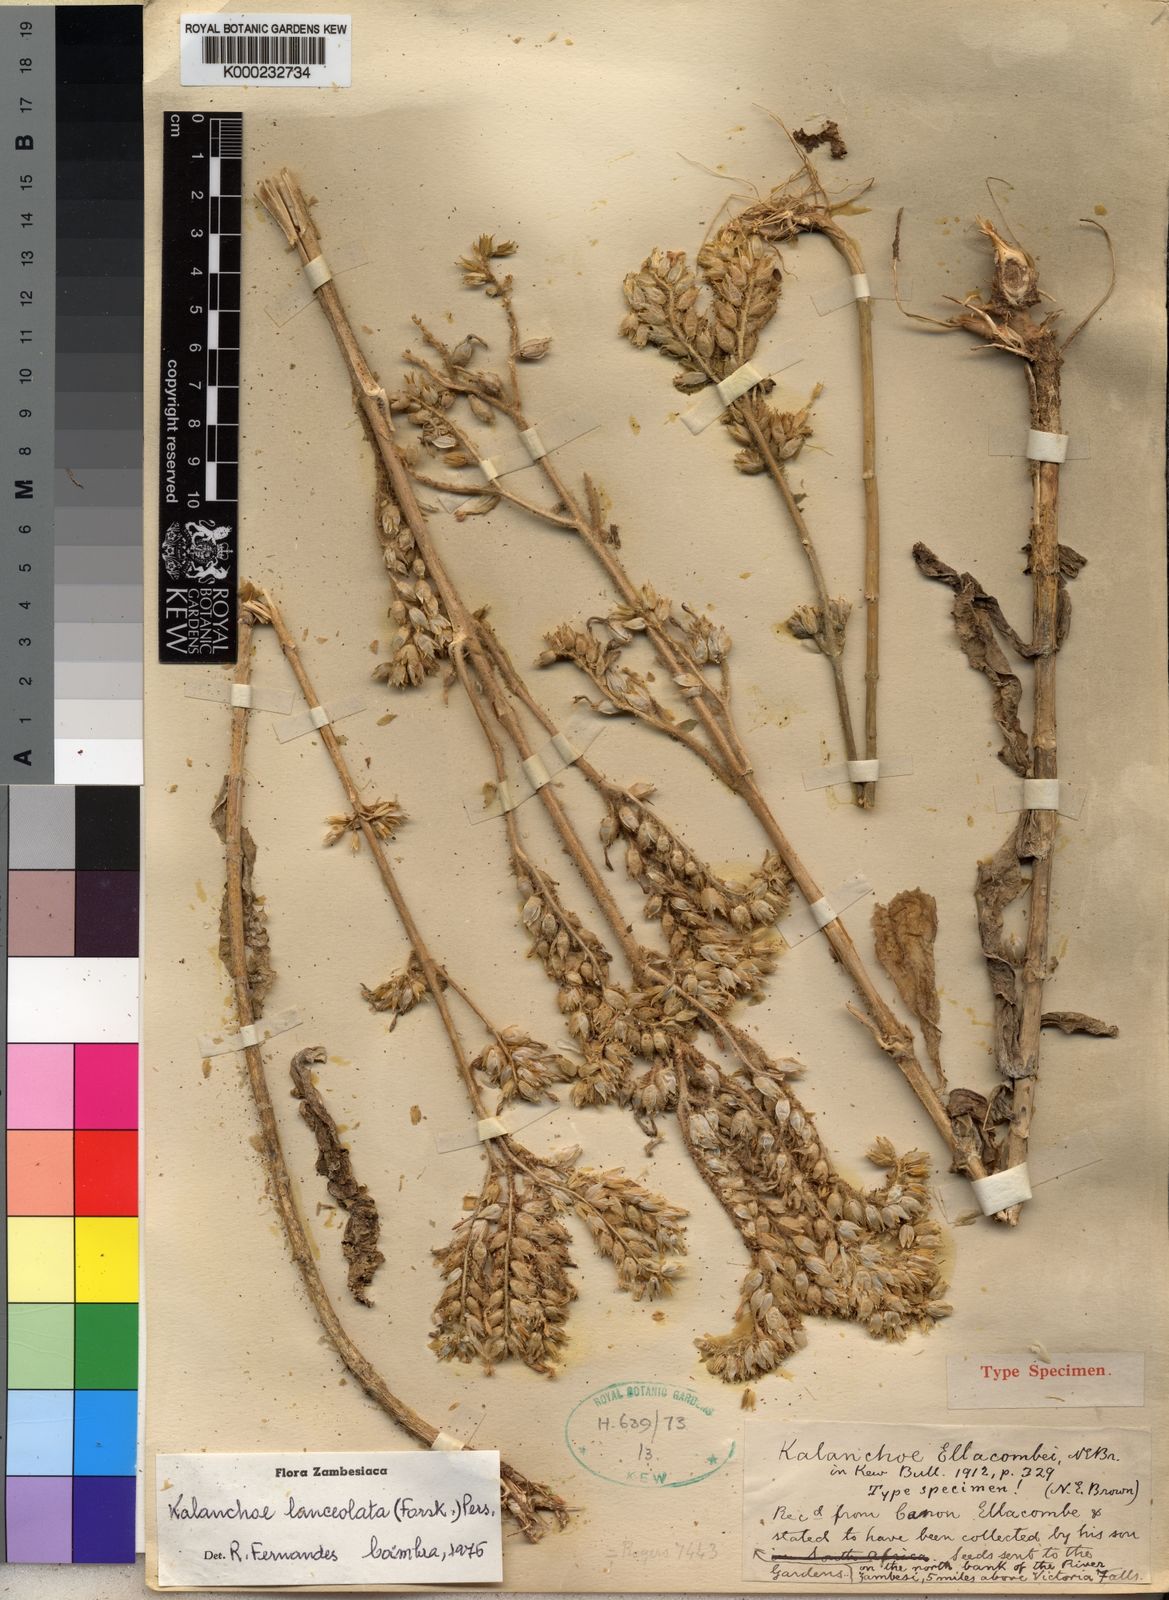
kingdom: Plantae
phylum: Tracheophyta
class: Magnoliopsida
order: Saxifragales
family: Crassulaceae
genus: Kalanchoe
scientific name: Kalanchoe lanceolata
